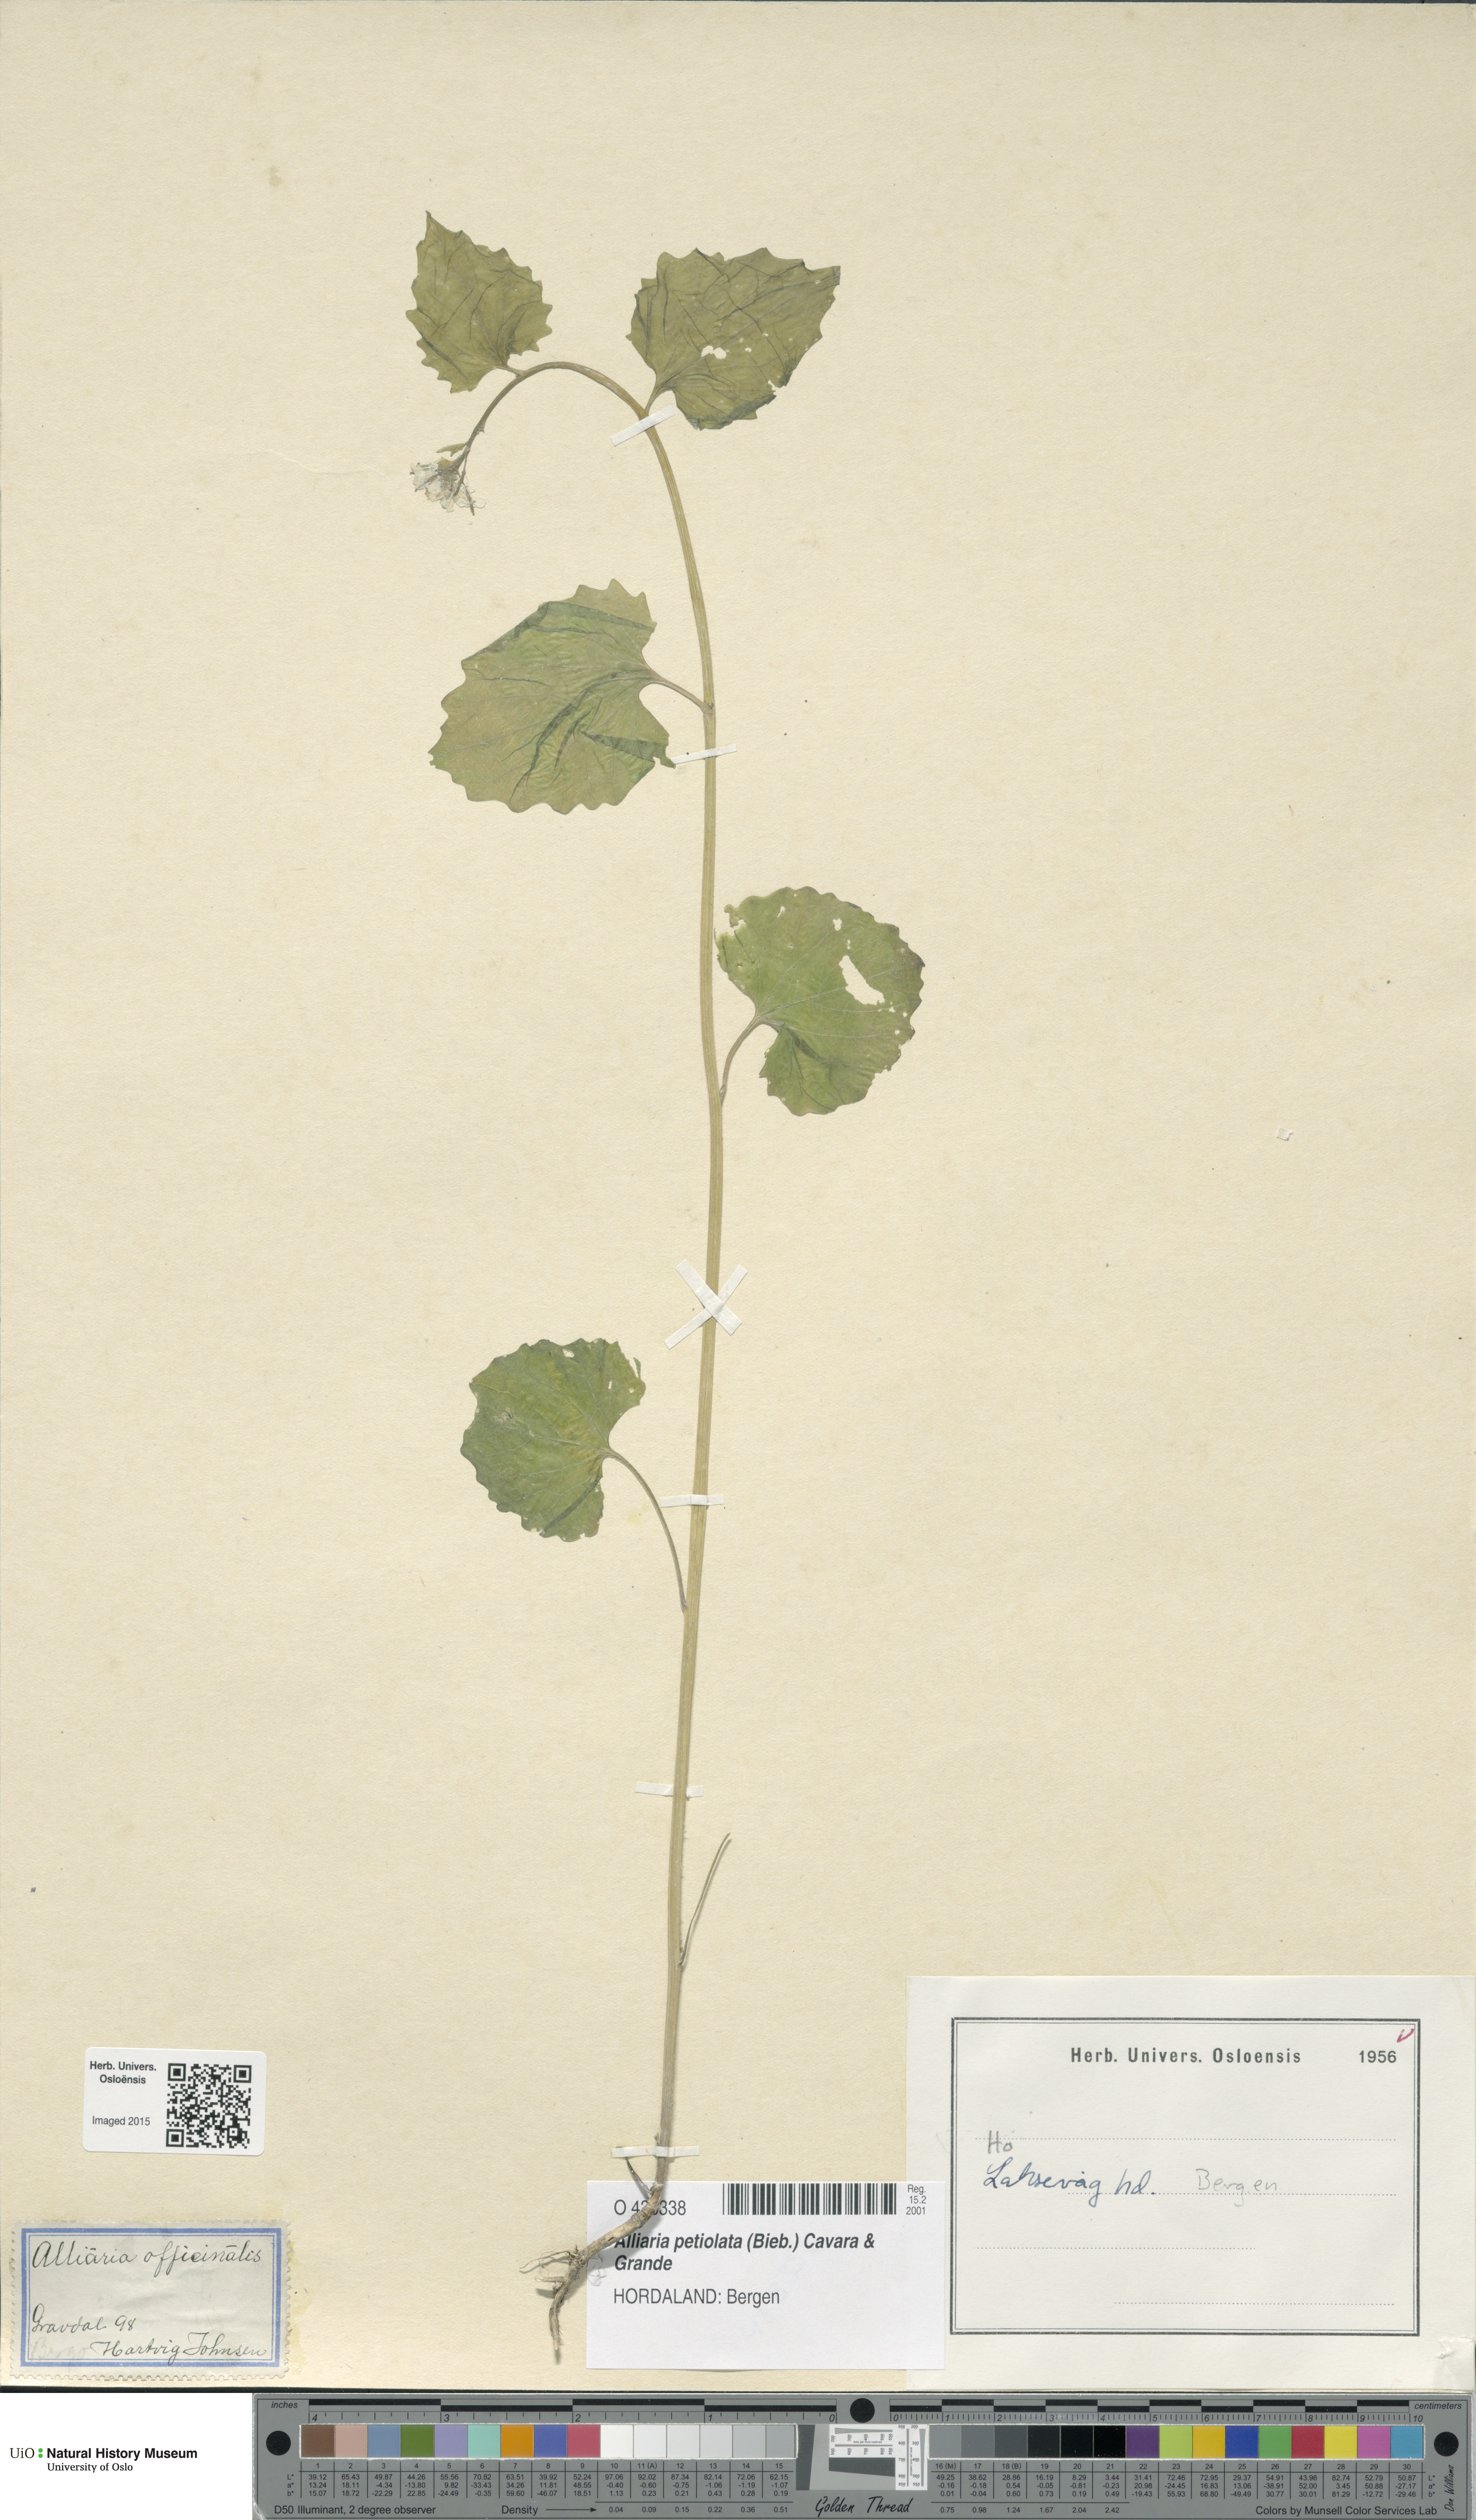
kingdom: Plantae
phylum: Tracheophyta
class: Magnoliopsida
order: Brassicales
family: Brassicaceae
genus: Alliaria
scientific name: Alliaria petiolata
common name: Garlic mustard
